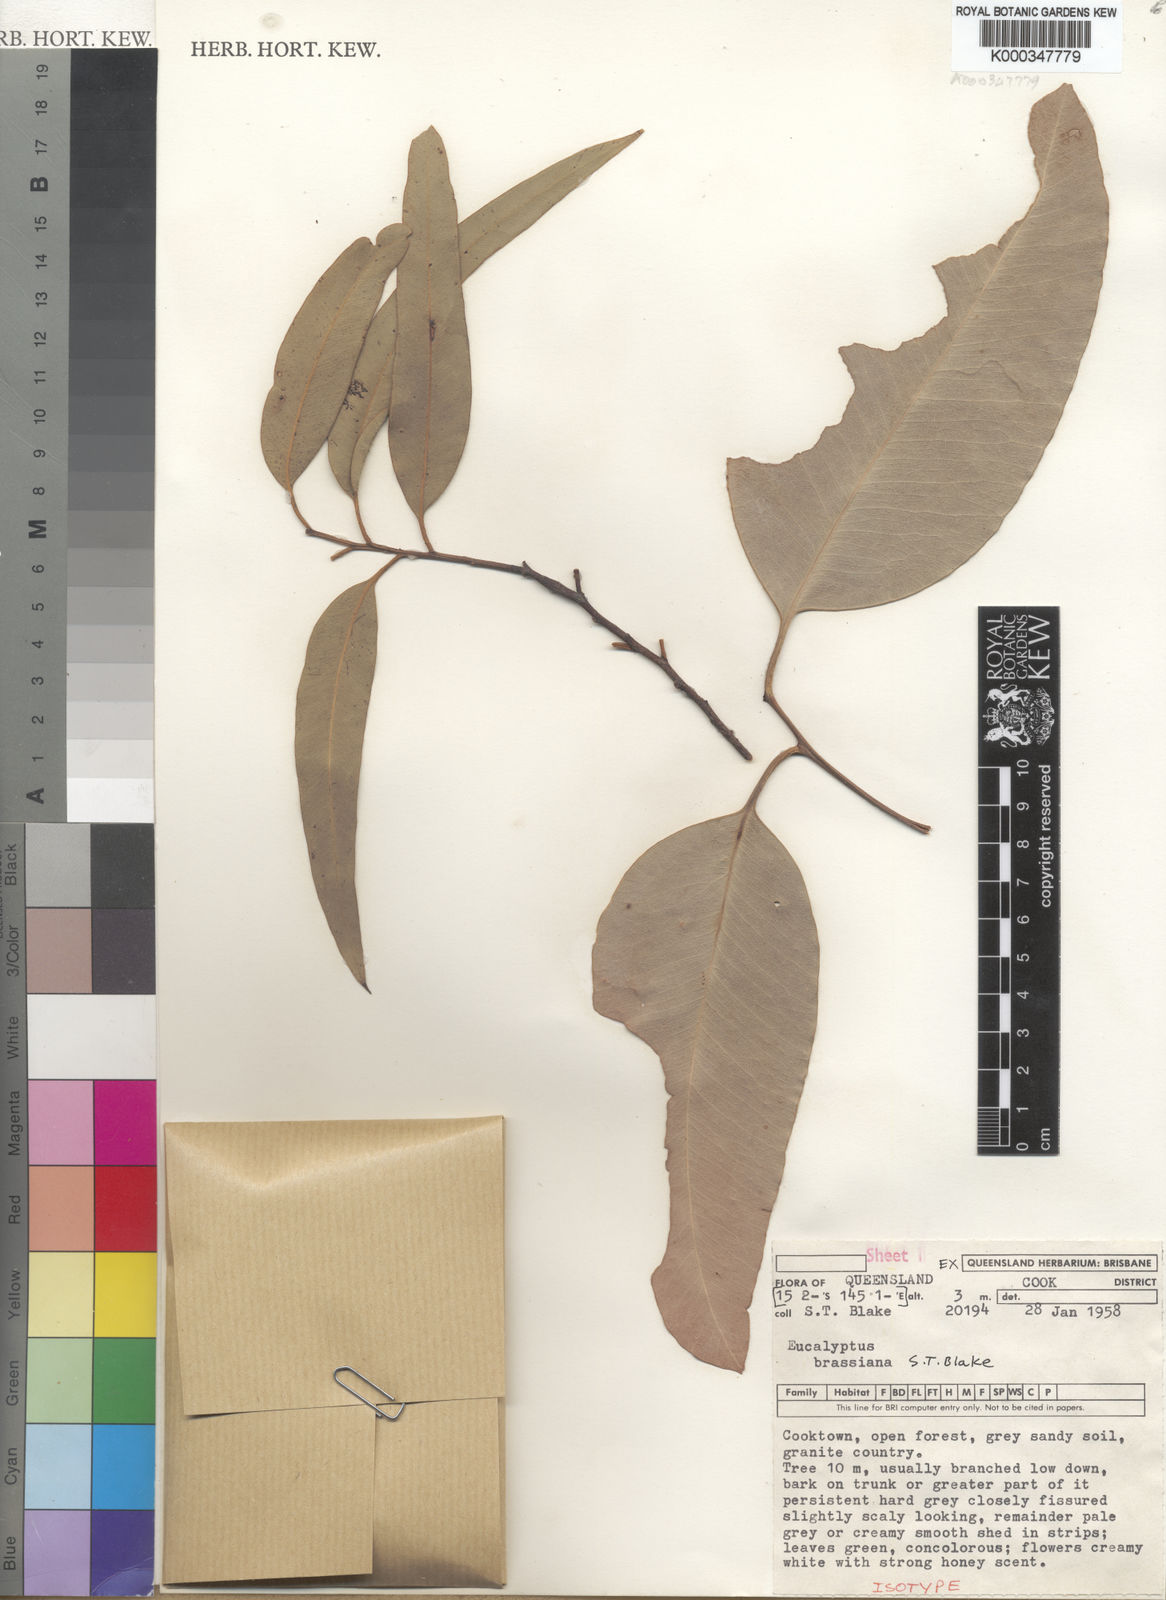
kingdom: Plantae
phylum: Tracheophyta
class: Magnoliopsida
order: Myrtales
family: Myrtaceae
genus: Eucalyptus
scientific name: Eucalyptus brassiana
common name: Cape-york-gum
